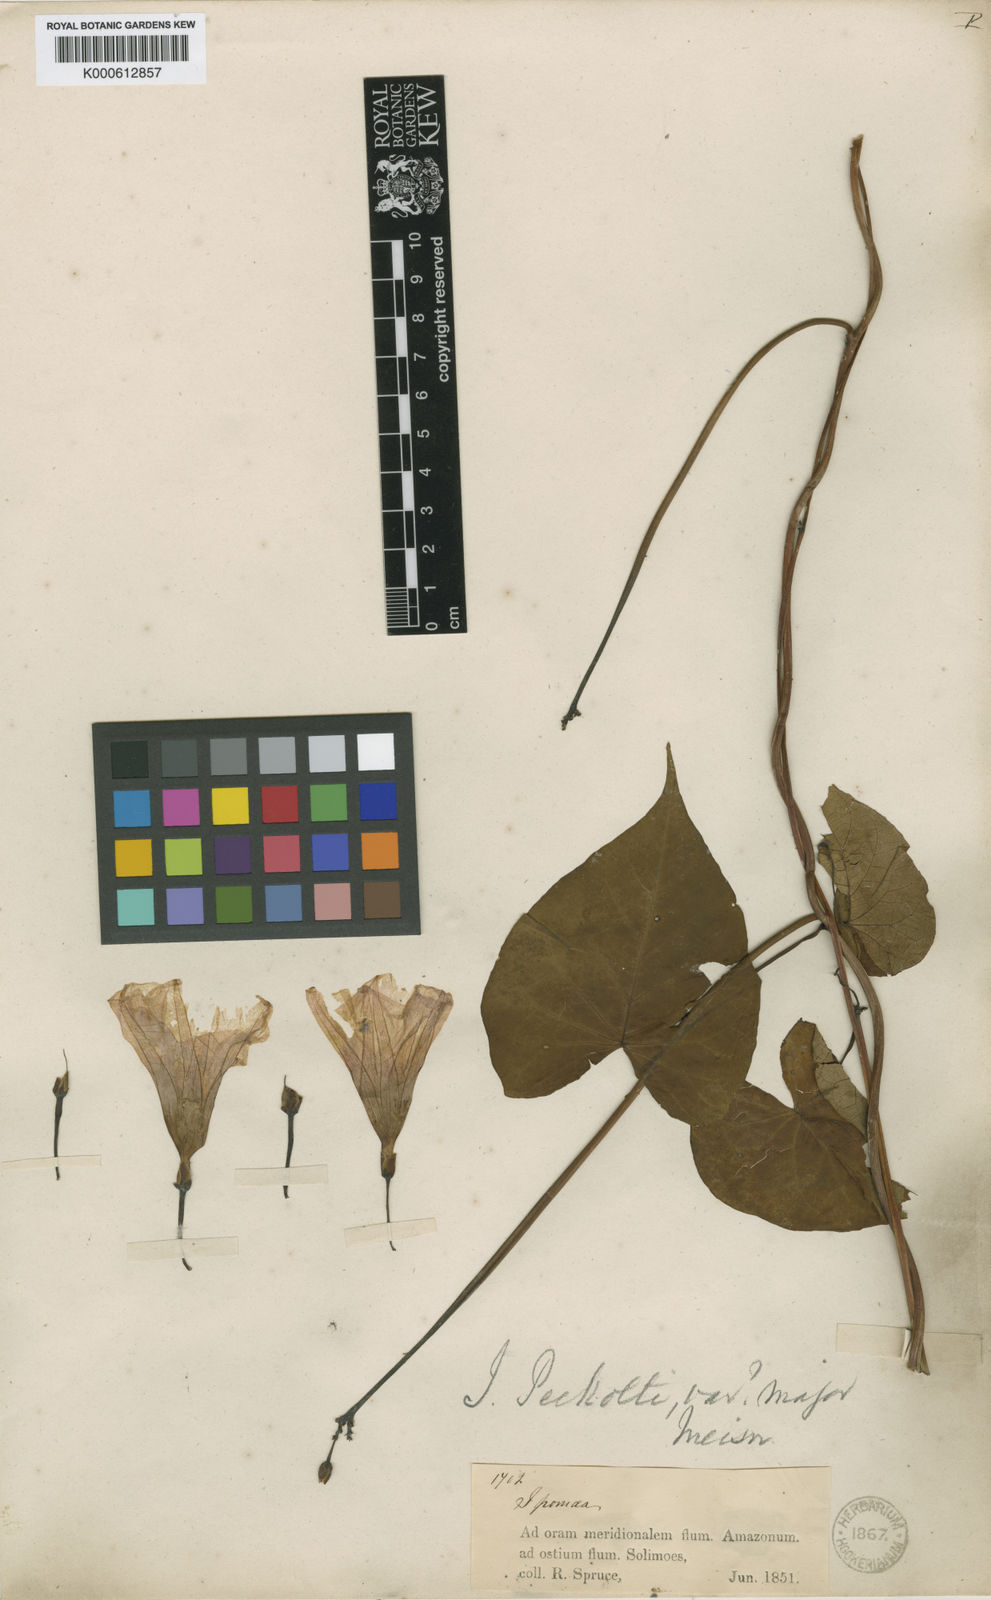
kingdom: Plantae
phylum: Tracheophyta
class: Magnoliopsida
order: Solanales
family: Convolvulaceae
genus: Ipomoea
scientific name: Ipomoea squamosa
